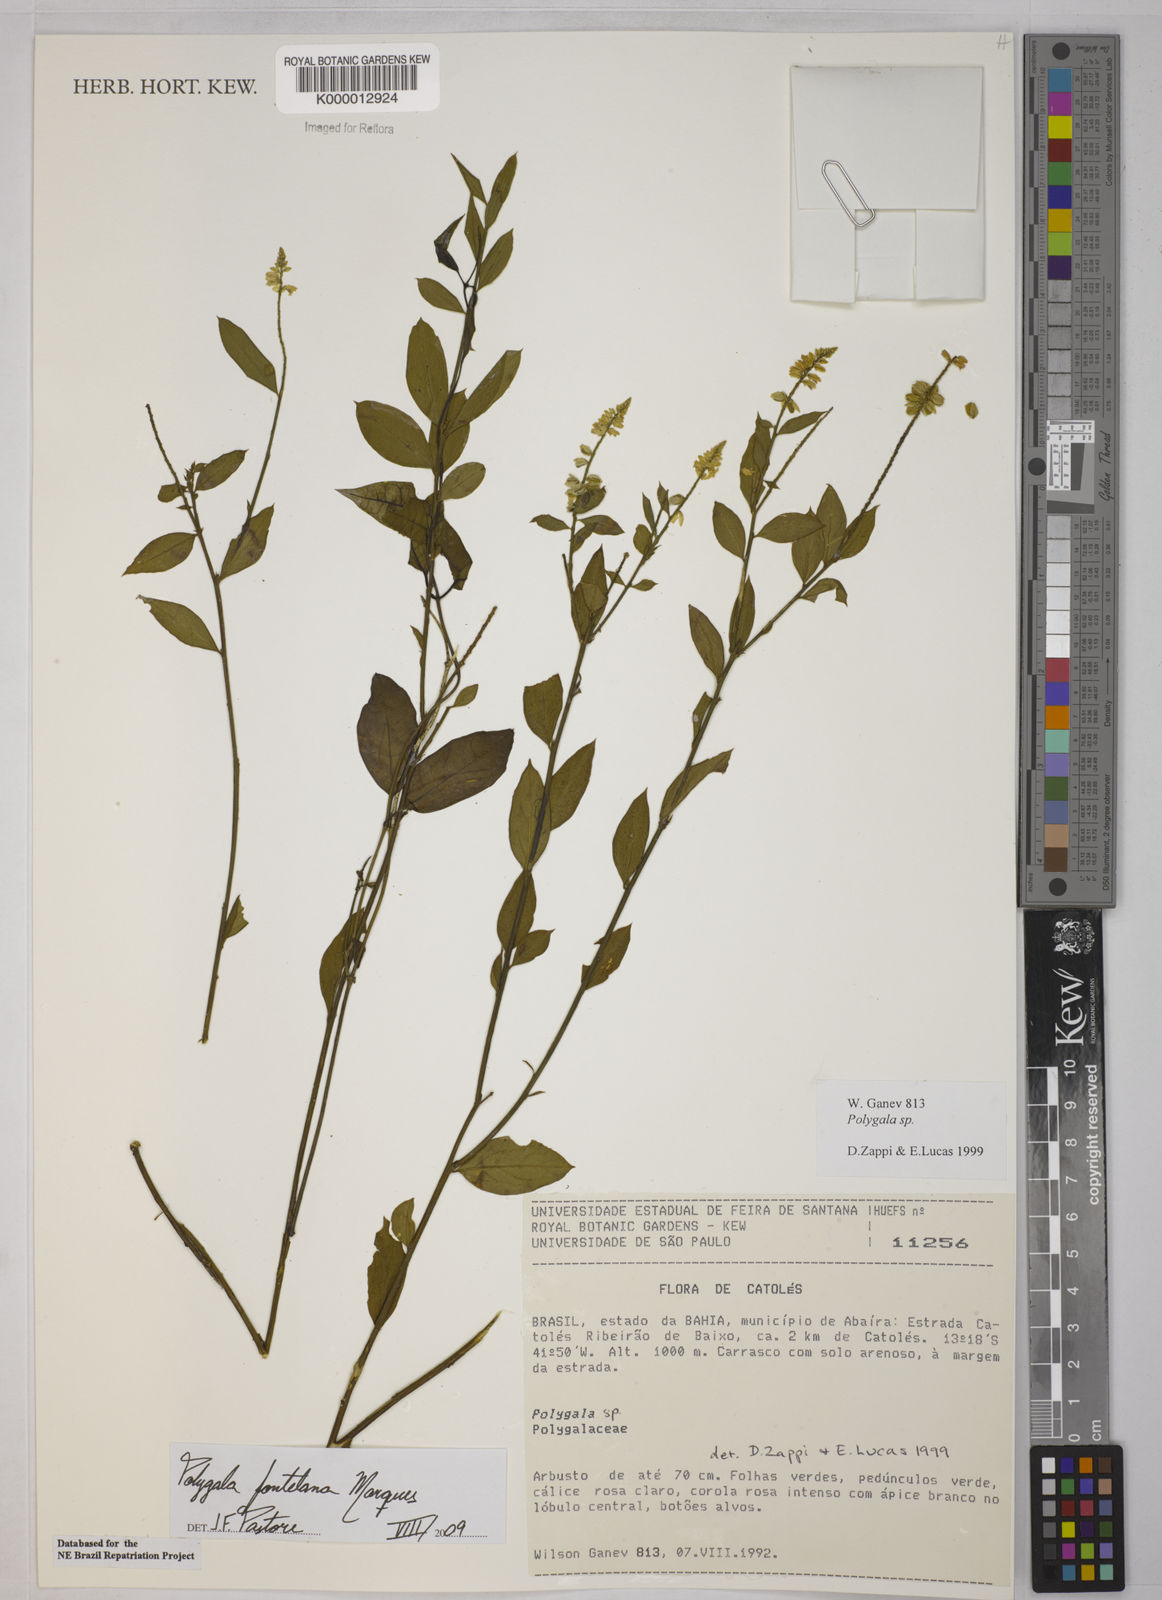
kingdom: Plantae
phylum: Tracheophyta
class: Magnoliopsida
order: Fabales
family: Polygalaceae
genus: Polygala
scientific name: Polygala
